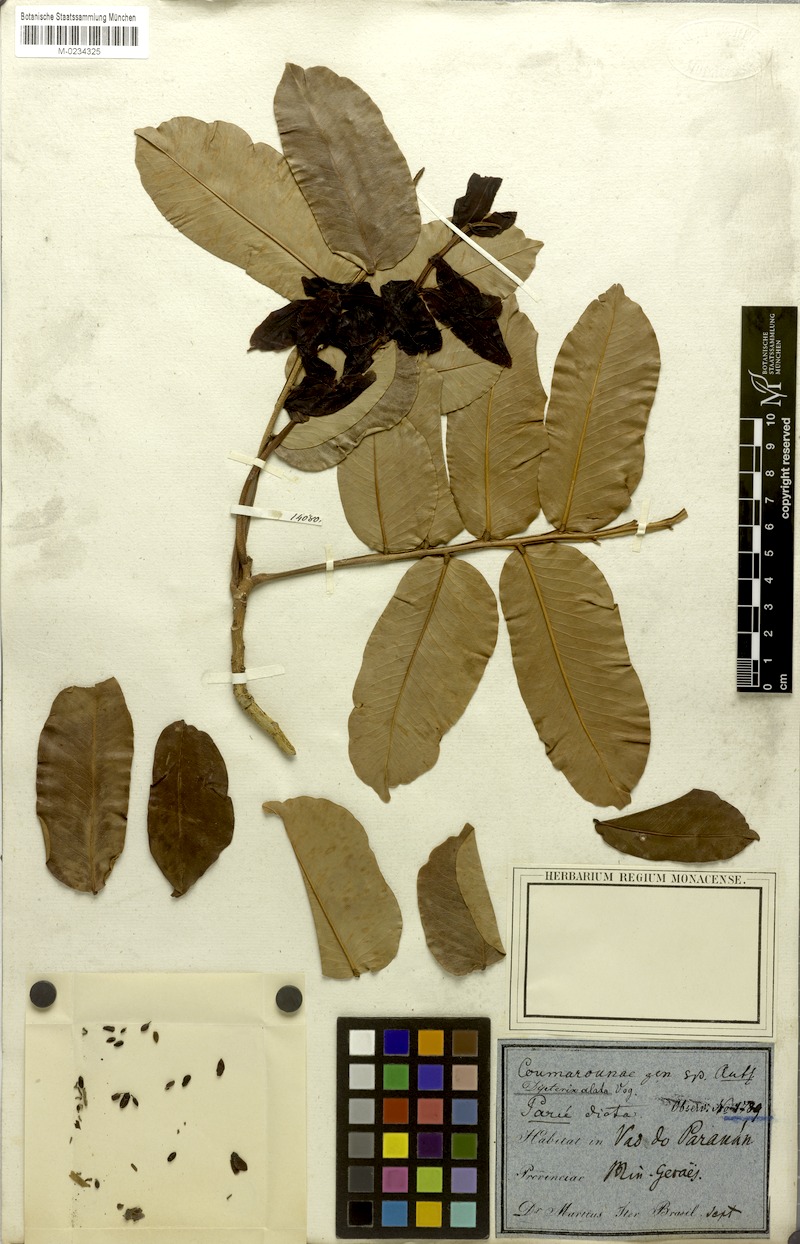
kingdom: Plantae
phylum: Tracheophyta
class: Magnoliopsida
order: Fabales
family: Fabaceae
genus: Dipteryx
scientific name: Dipteryx alata
